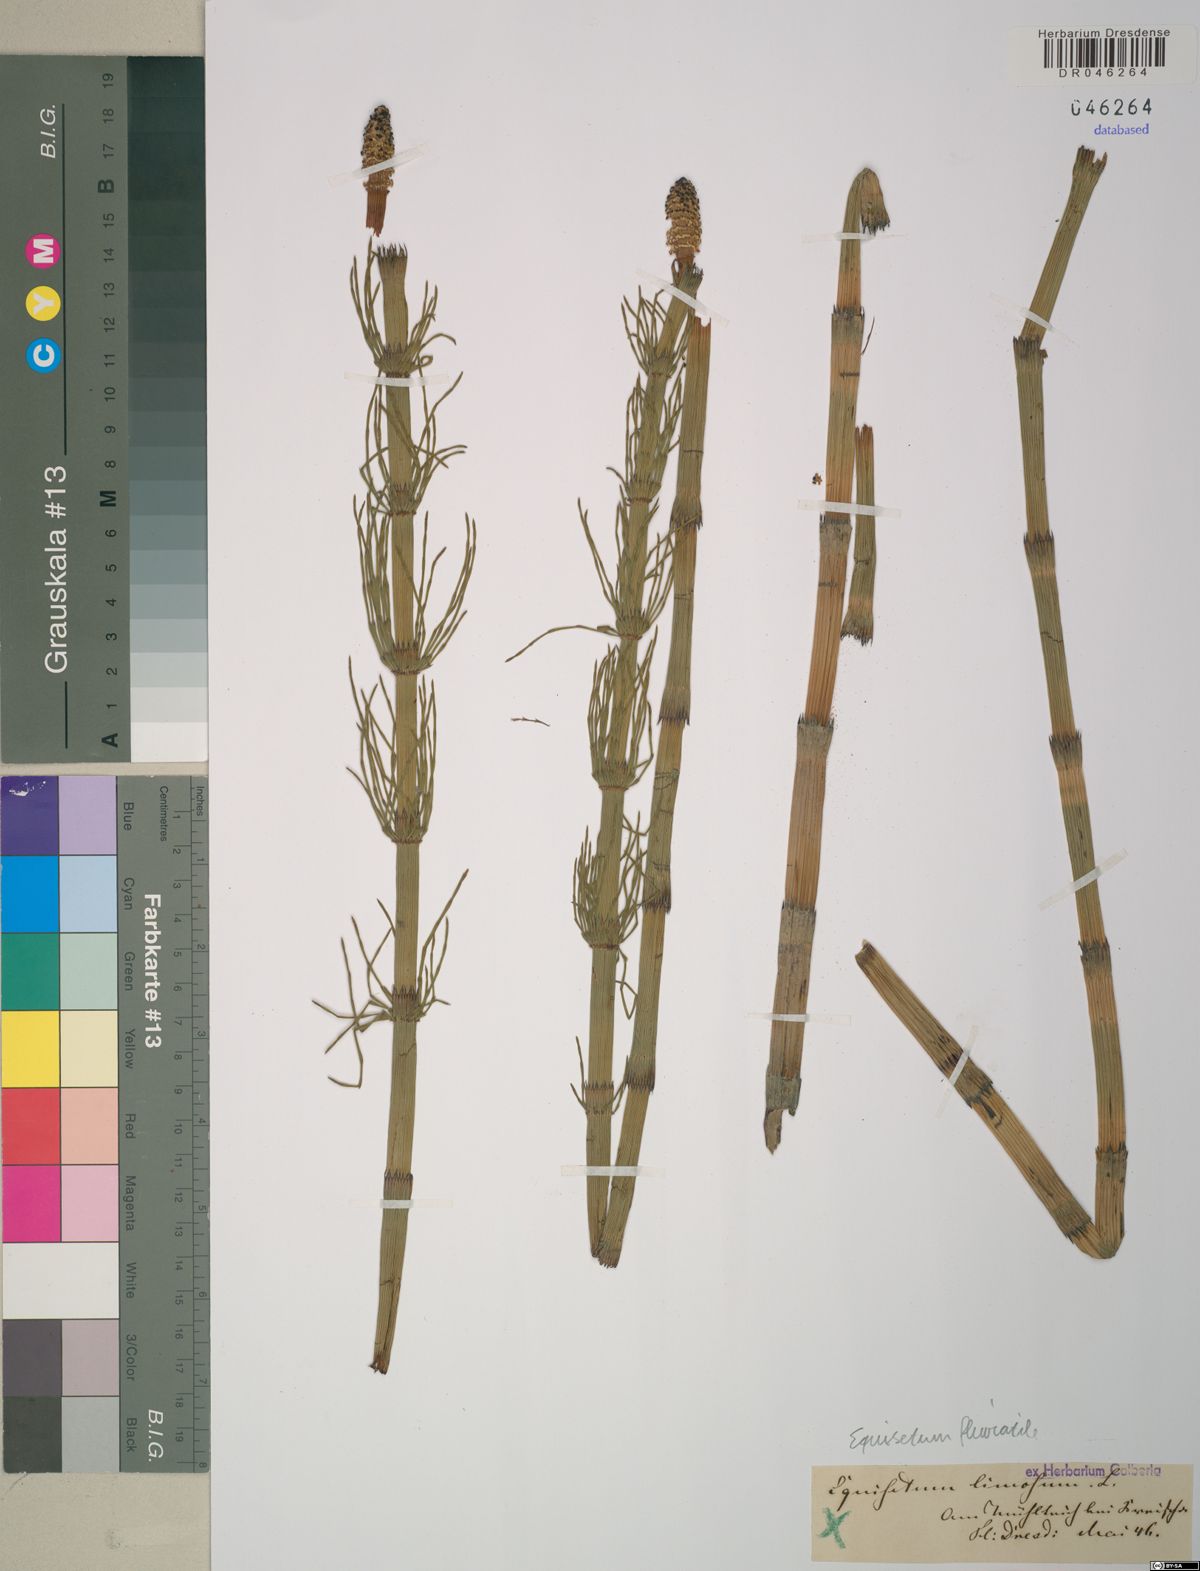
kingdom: Plantae
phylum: Tracheophyta
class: Polypodiopsida
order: Equisetales
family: Equisetaceae
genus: Equisetum
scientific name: Equisetum fluviatile
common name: Water horsetail
